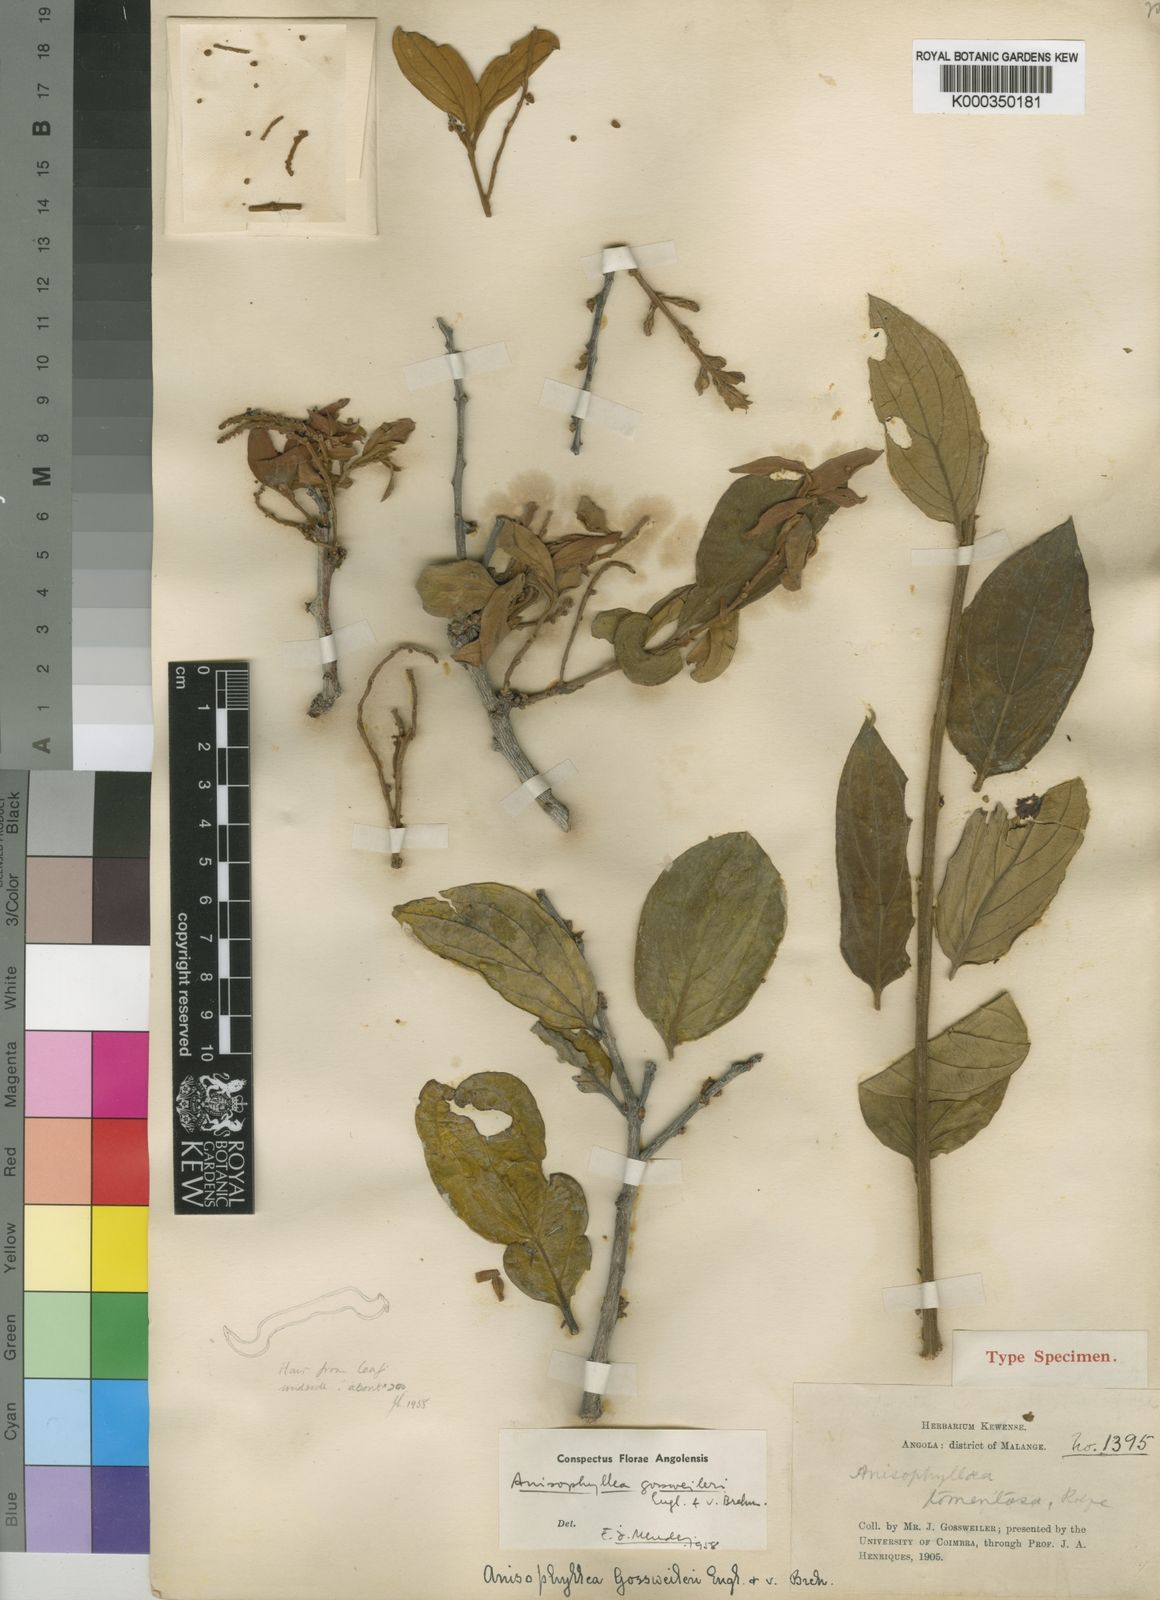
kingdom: Plantae
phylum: Tracheophyta
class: Magnoliopsida
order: Cucurbitales
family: Anisophylleaceae
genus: Anisophyllea
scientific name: Anisophyllea boehmii
